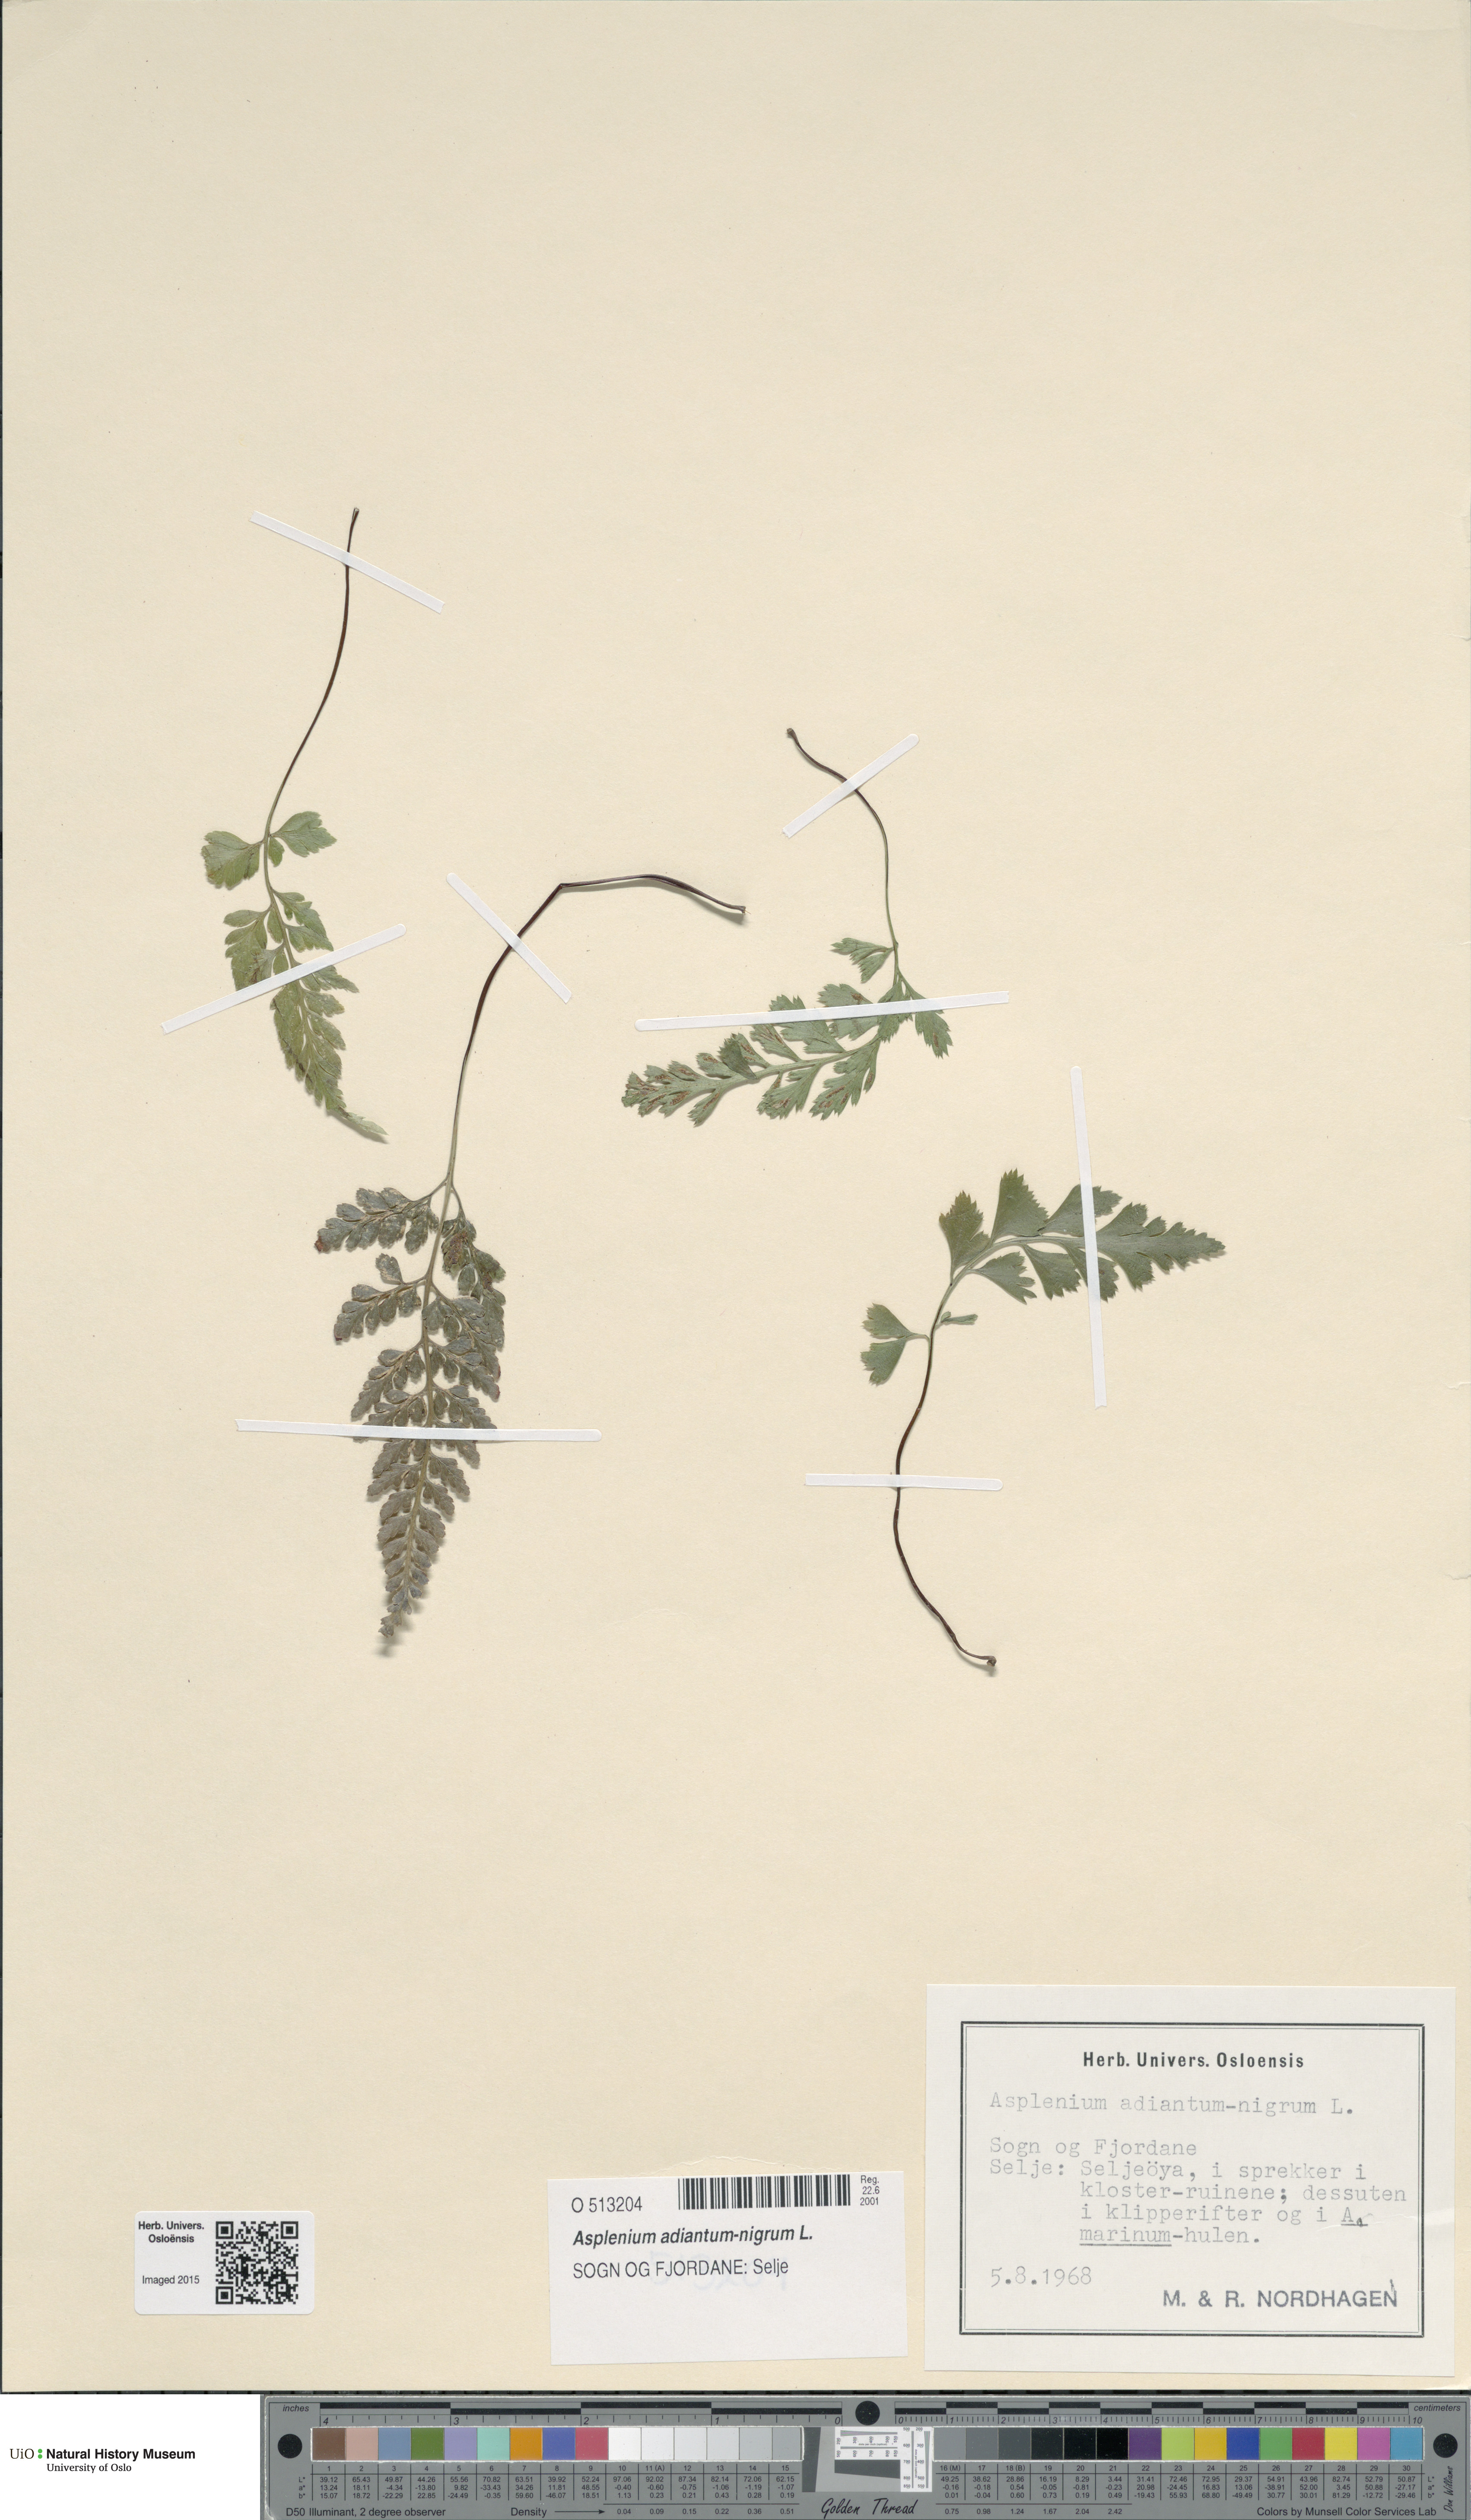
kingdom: Plantae
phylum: Tracheophyta
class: Polypodiopsida
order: Polypodiales
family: Aspleniaceae
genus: Asplenium
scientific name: Asplenium adiantum-nigrum
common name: Black spleenwort
